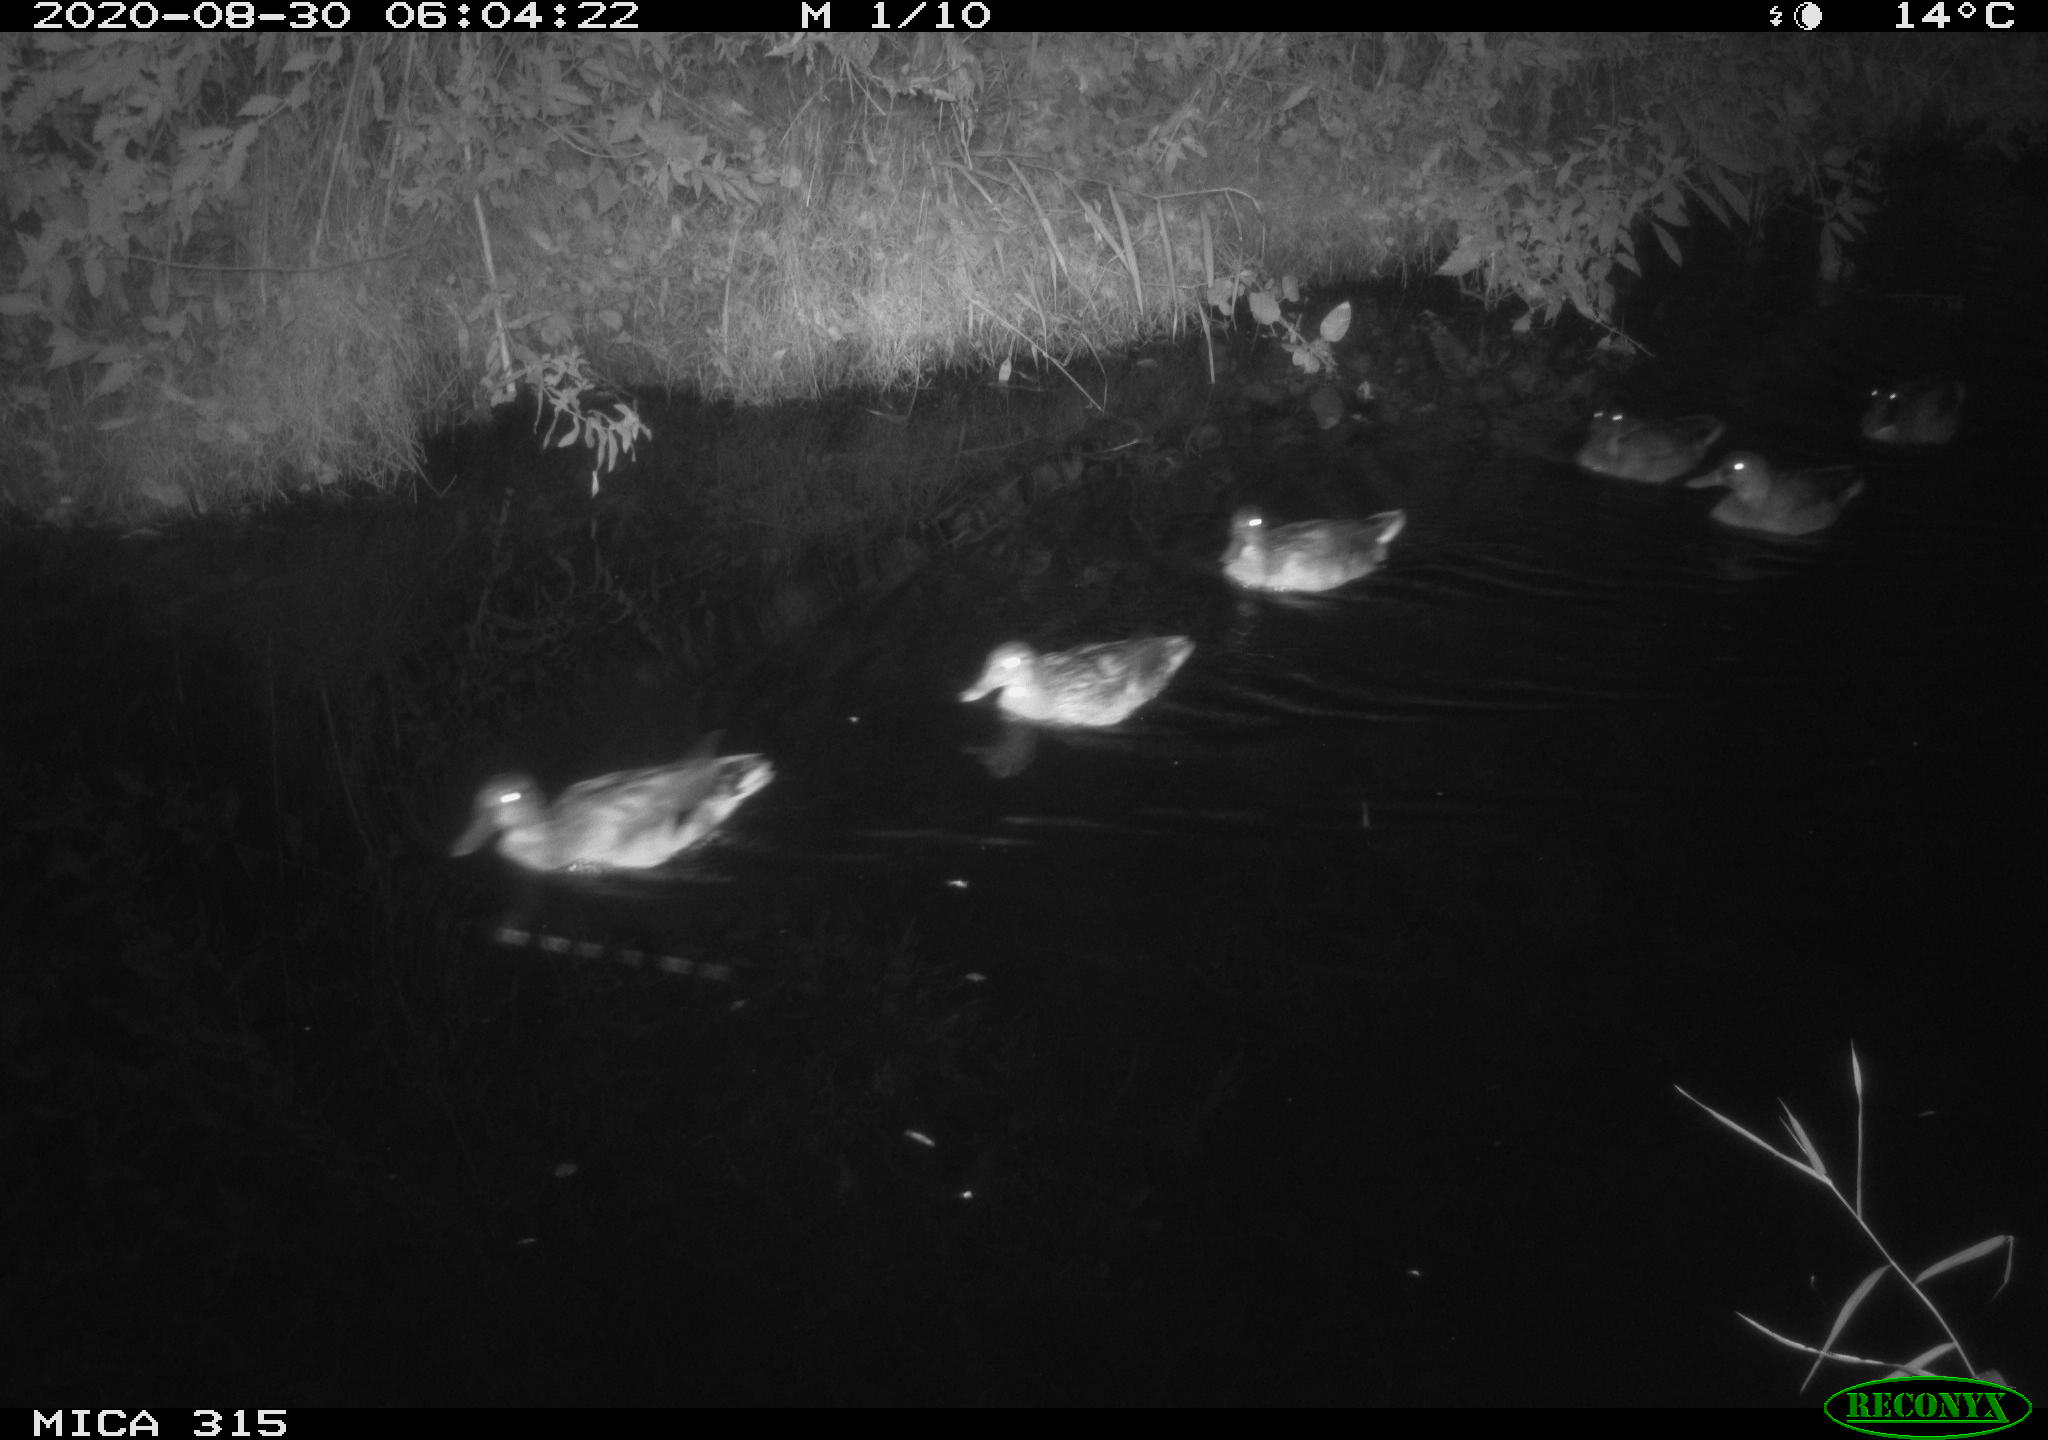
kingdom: Animalia
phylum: Chordata
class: Aves
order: Anseriformes
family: Anatidae
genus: Anas
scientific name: Anas platyrhynchos
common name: Mallard
